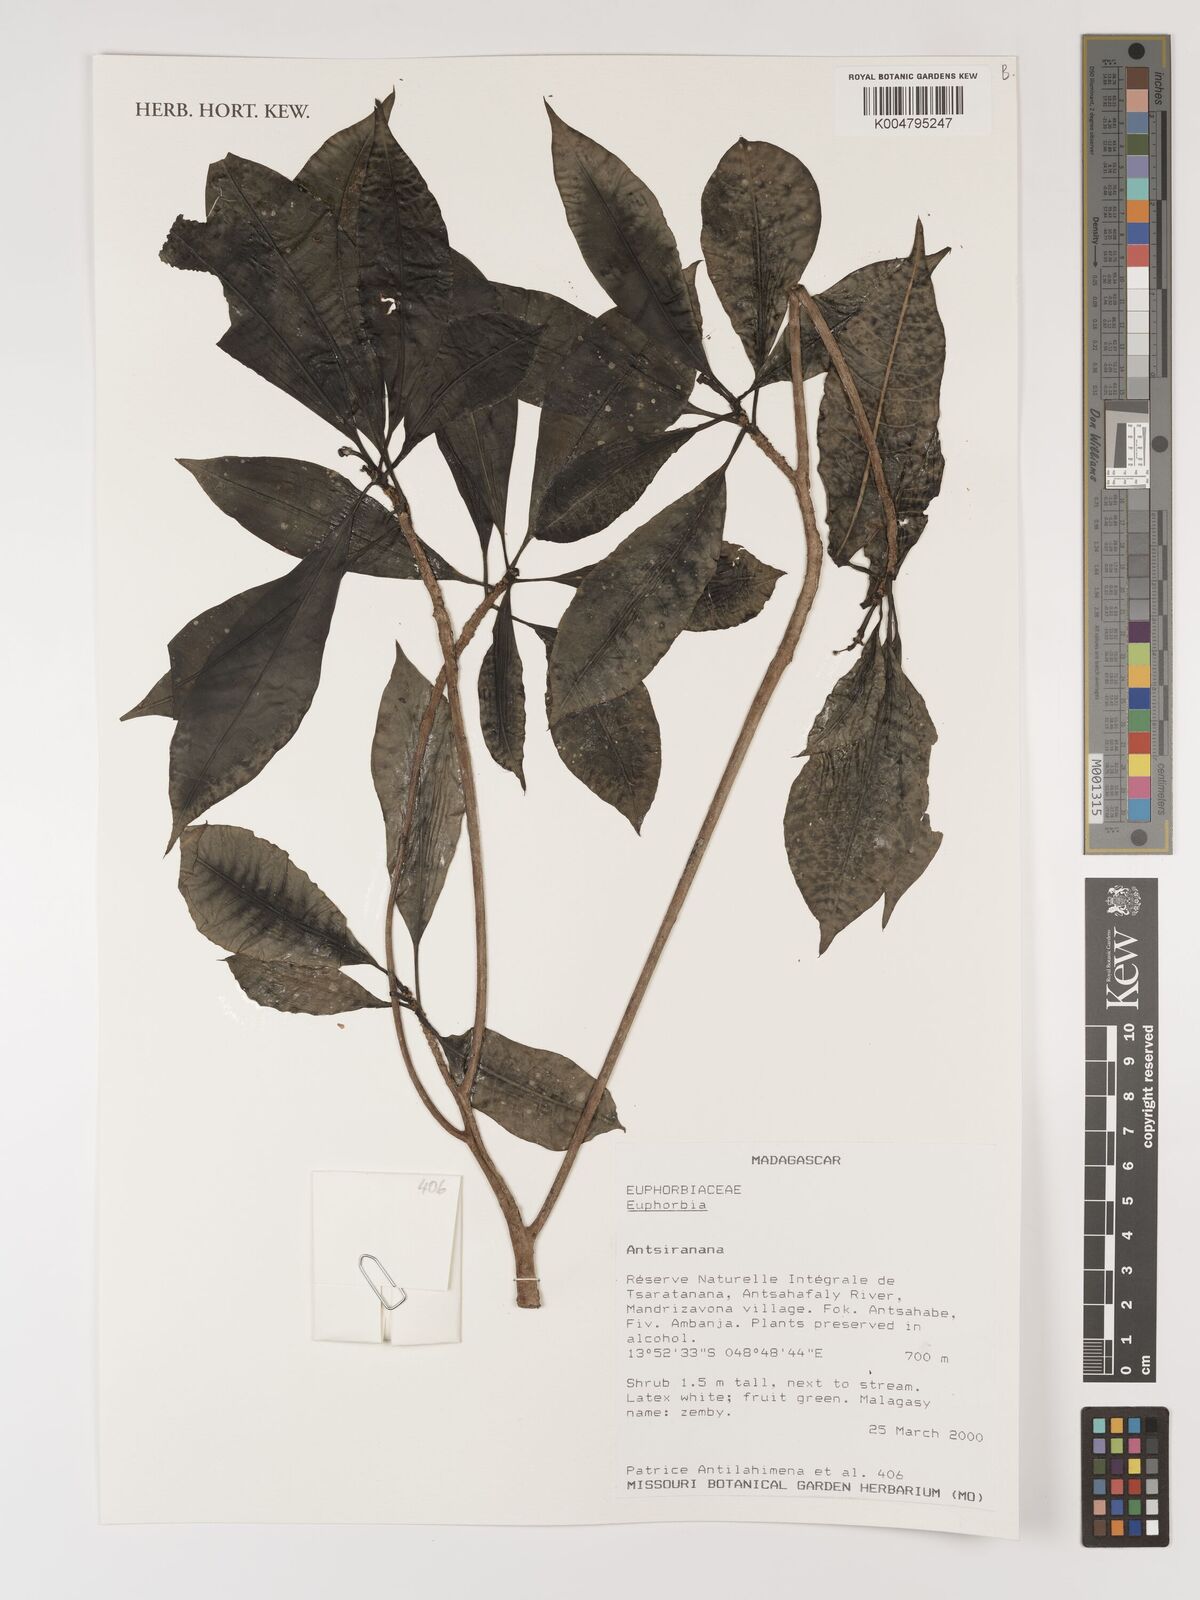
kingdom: Plantae
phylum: Tracheophyta
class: Magnoliopsida
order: Malpighiales
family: Euphorbiaceae
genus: Euphorbia
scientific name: Euphorbia
